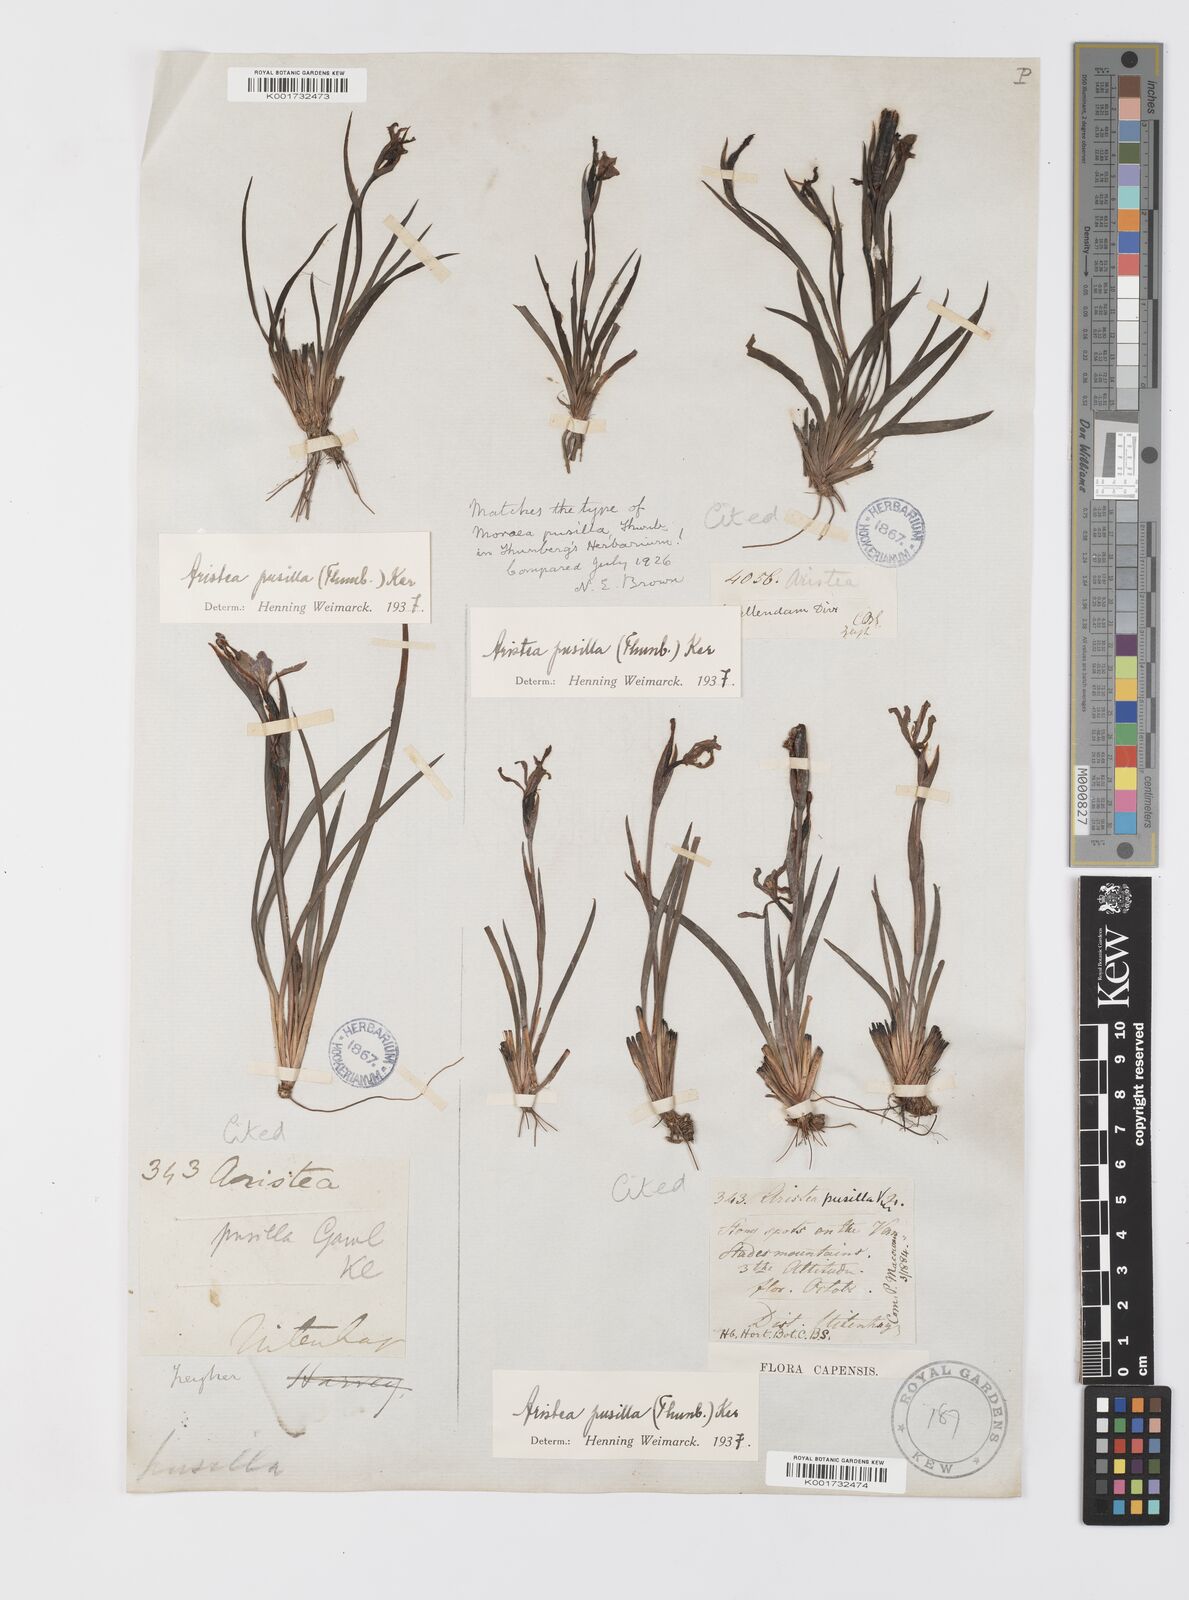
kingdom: Plantae
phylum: Tracheophyta
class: Liliopsida
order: Asparagales
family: Iridaceae
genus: Aristea
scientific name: Aristea pusilla
